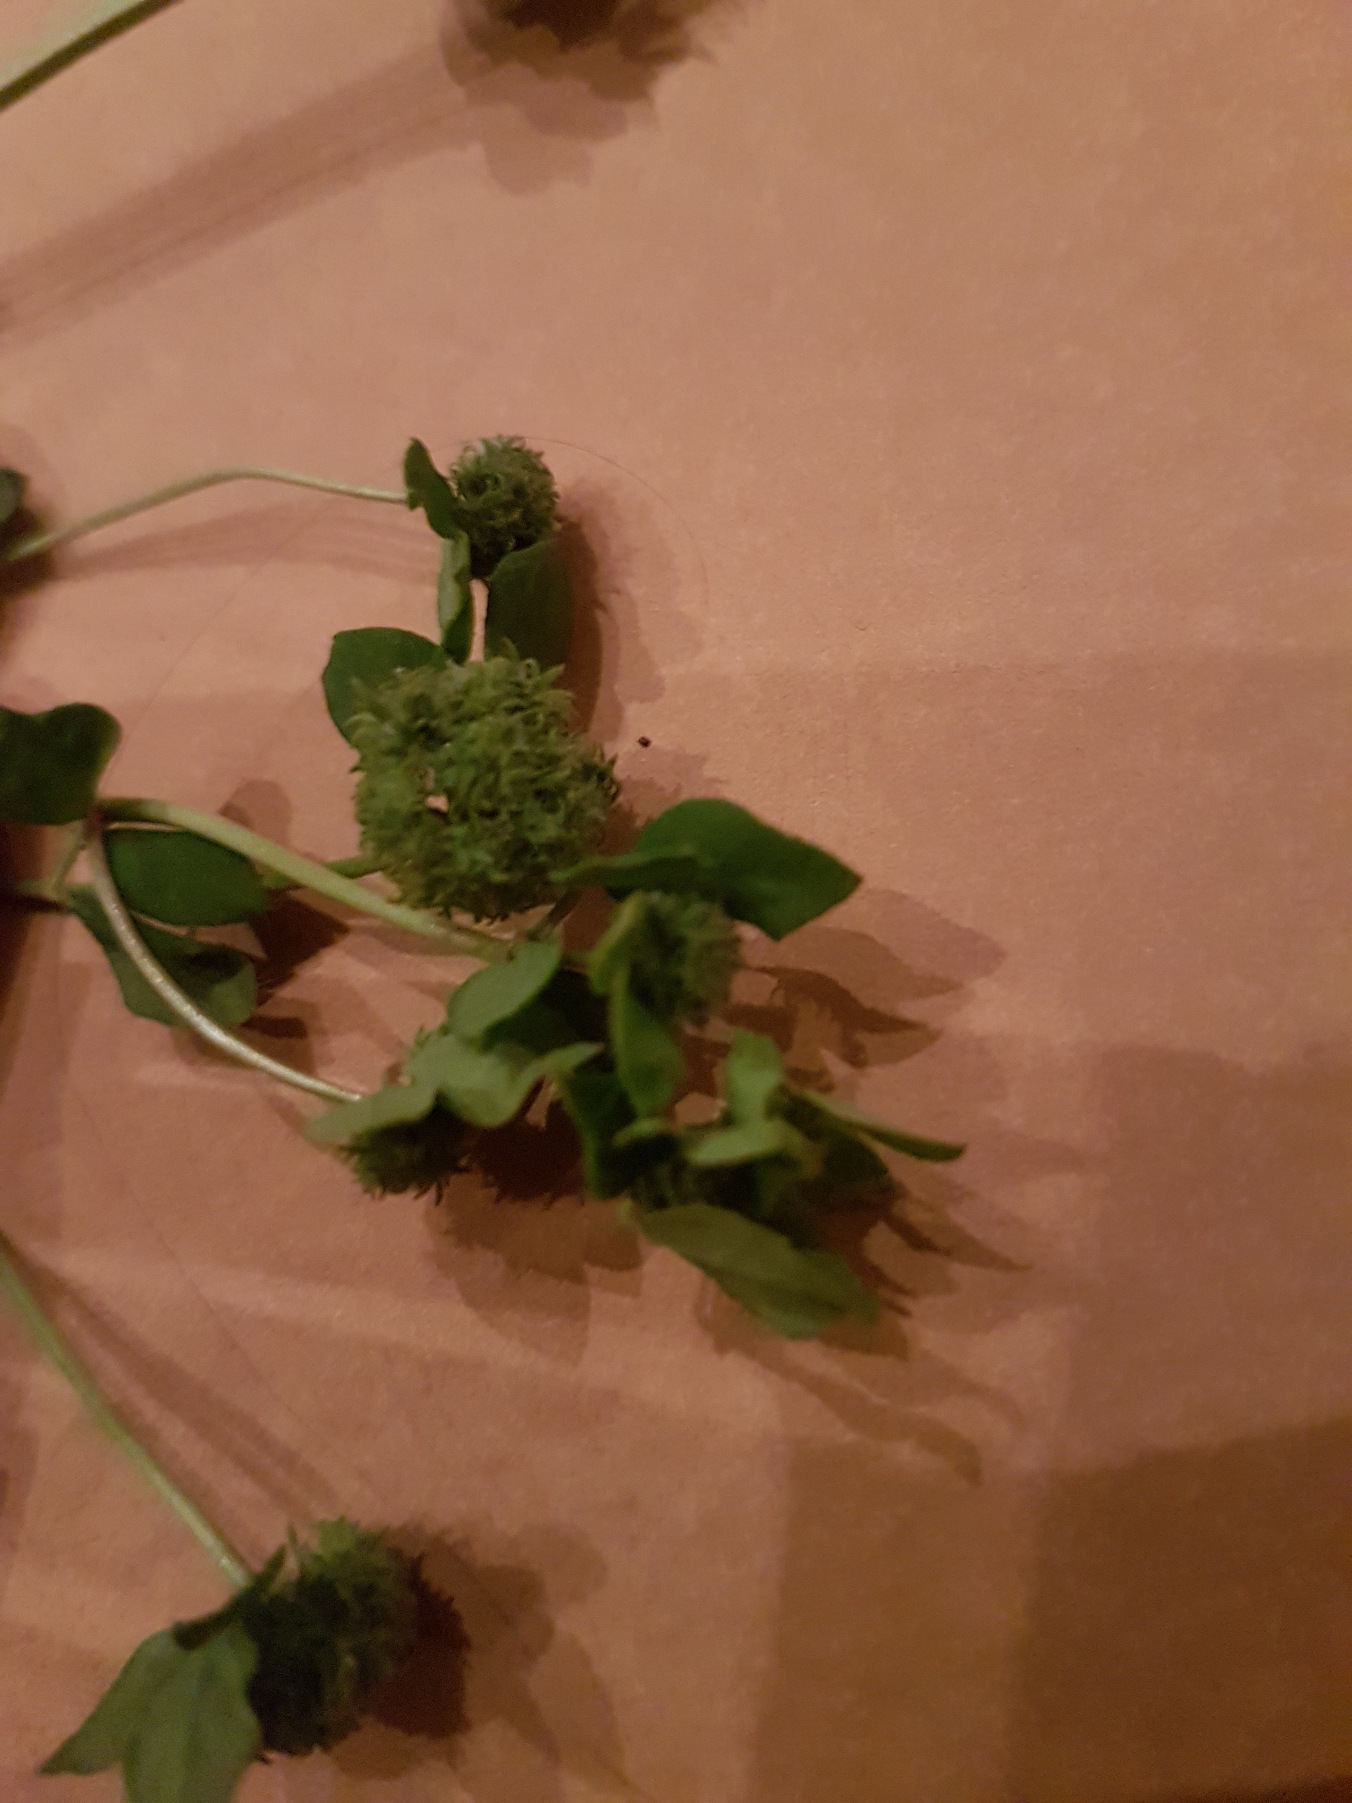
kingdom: Plantae
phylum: Tracheophyta
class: Magnoliopsida
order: Fabales
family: Fabaceae
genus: Medicago
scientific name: Medicago polymorpha
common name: Krog-sneglebælg
